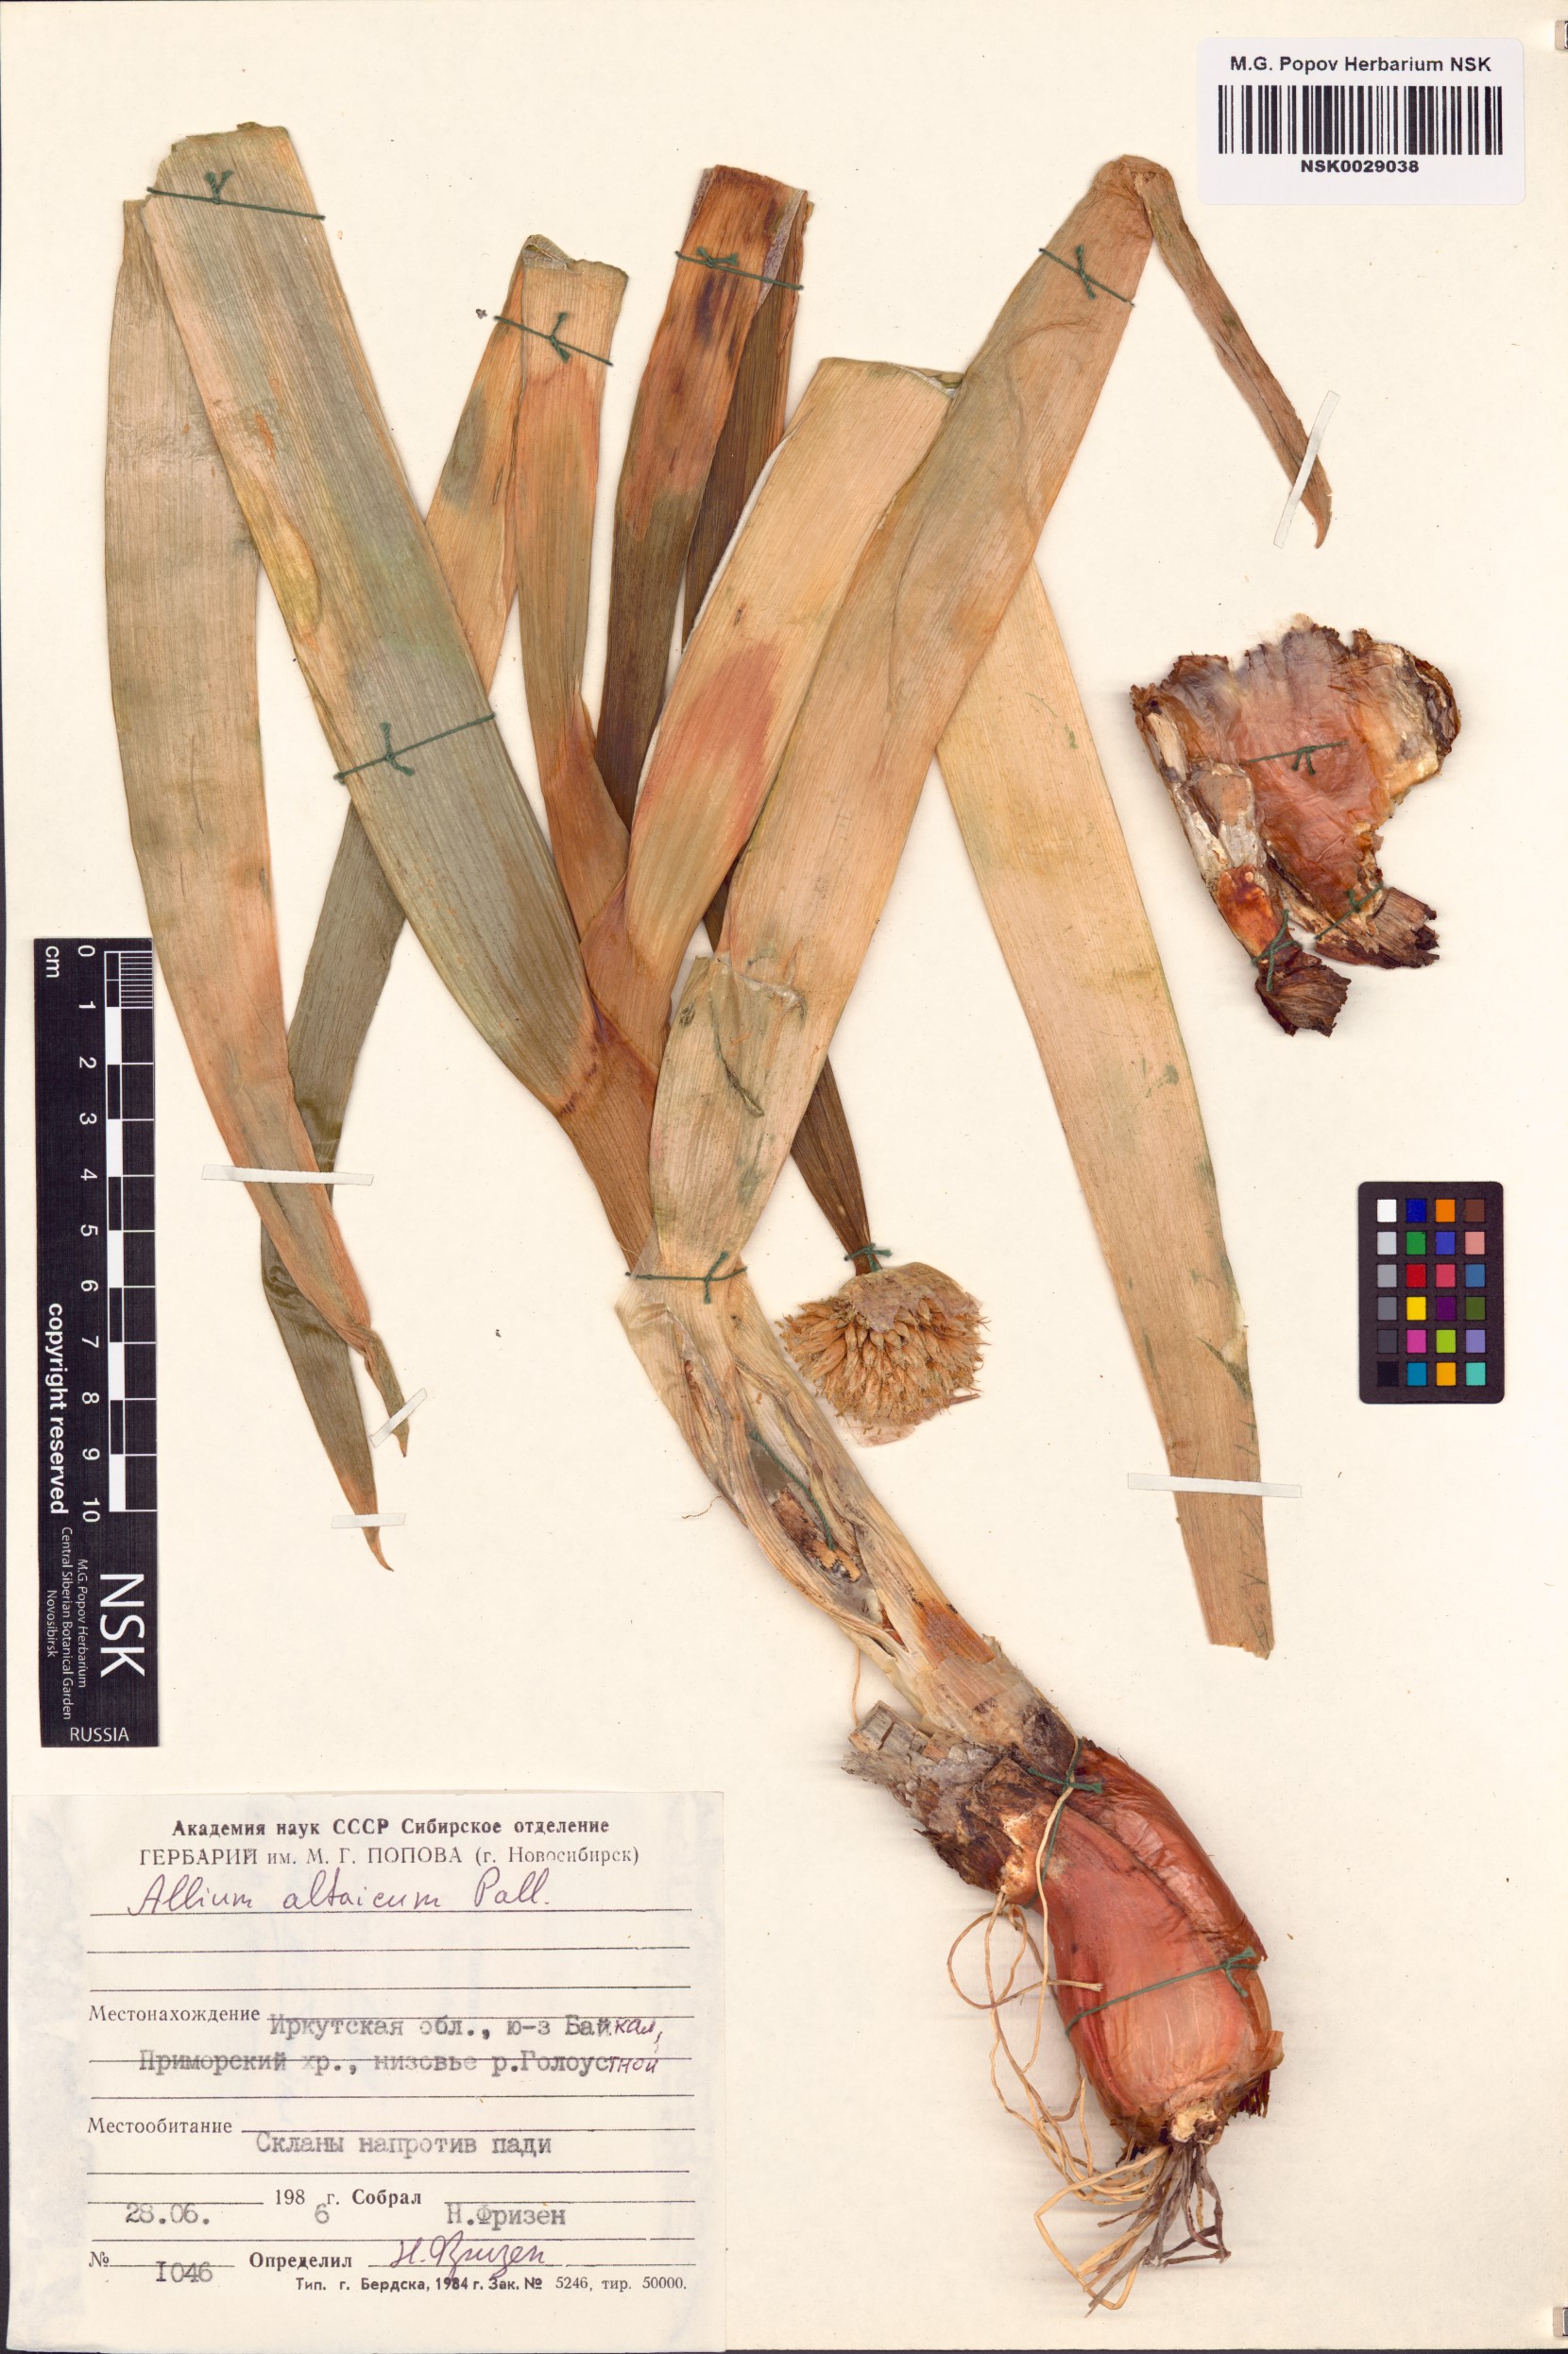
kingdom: Plantae
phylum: Tracheophyta
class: Liliopsida
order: Asparagales
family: Amaryllidaceae
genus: Allium
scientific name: Allium altaicum
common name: Altai onion
